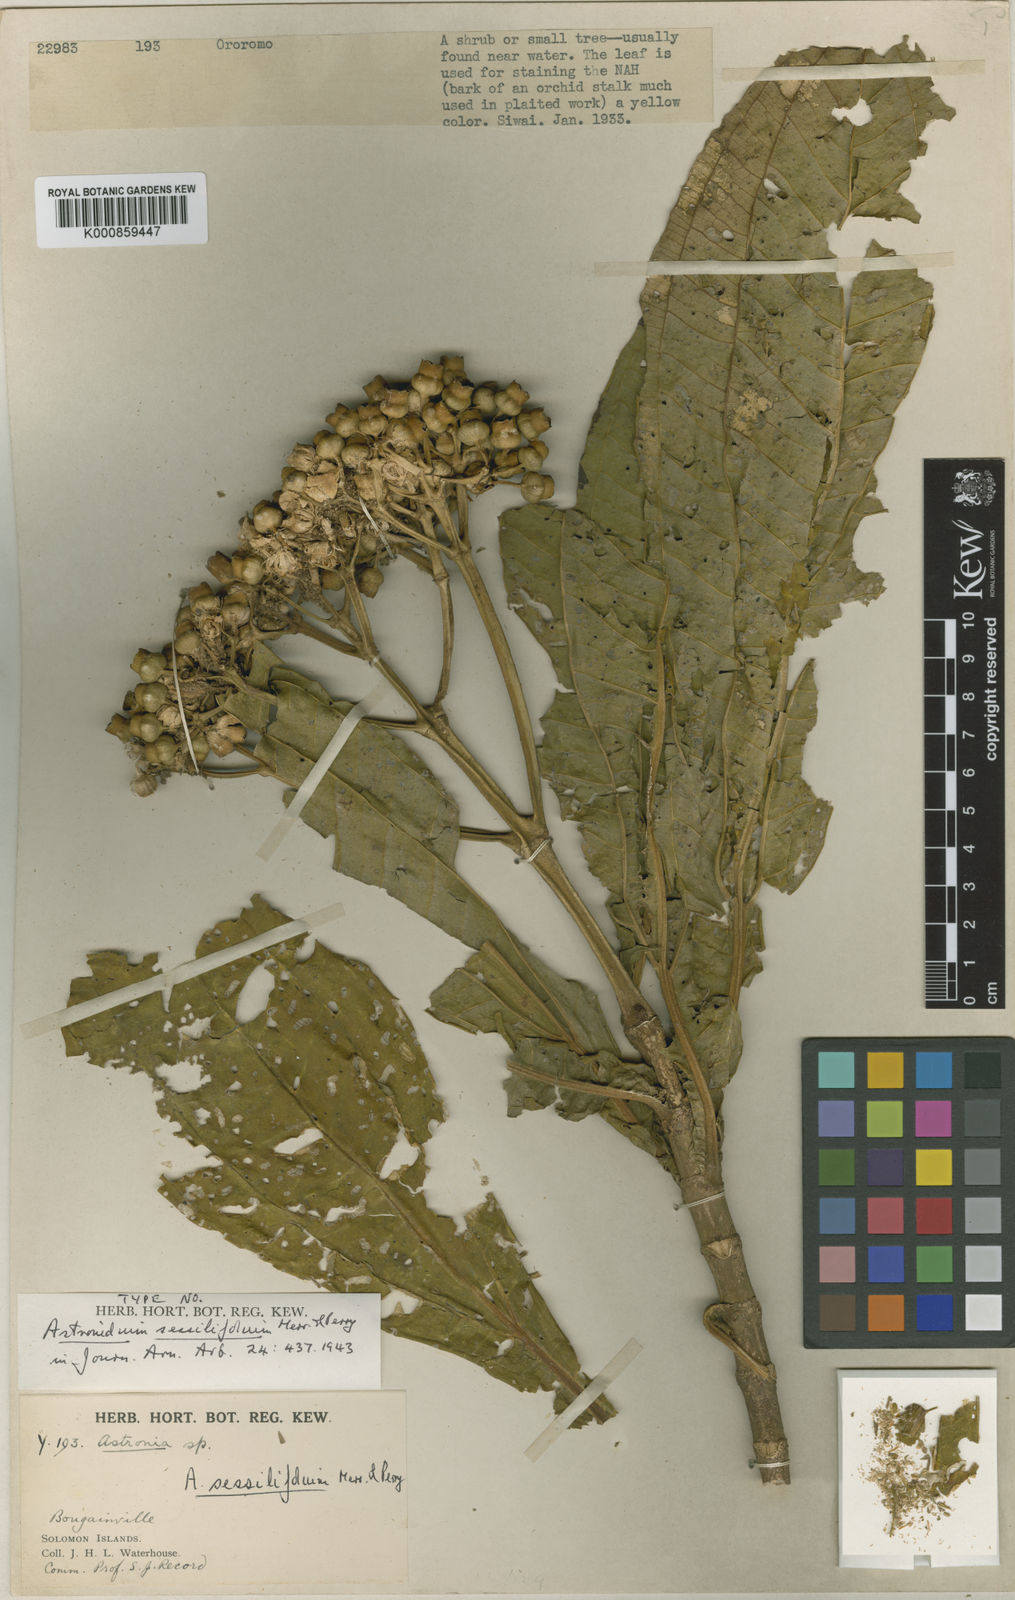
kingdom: Plantae
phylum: Tracheophyta
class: Magnoliopsida
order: Myrtales
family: Melastomataceae
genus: Astronidium
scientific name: Astronidium sessilifolium
